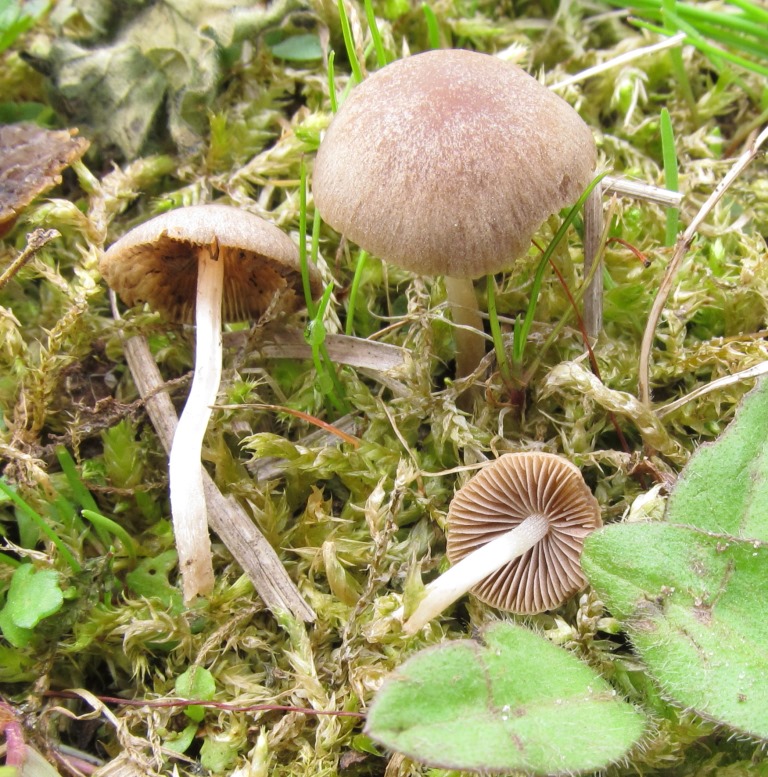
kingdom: Fungi
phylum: Basidiomycota
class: Agaricomycetes
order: Agaricales
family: Psathyrellaceae
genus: Psathyrella
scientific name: Psathyrella panaeoloides
